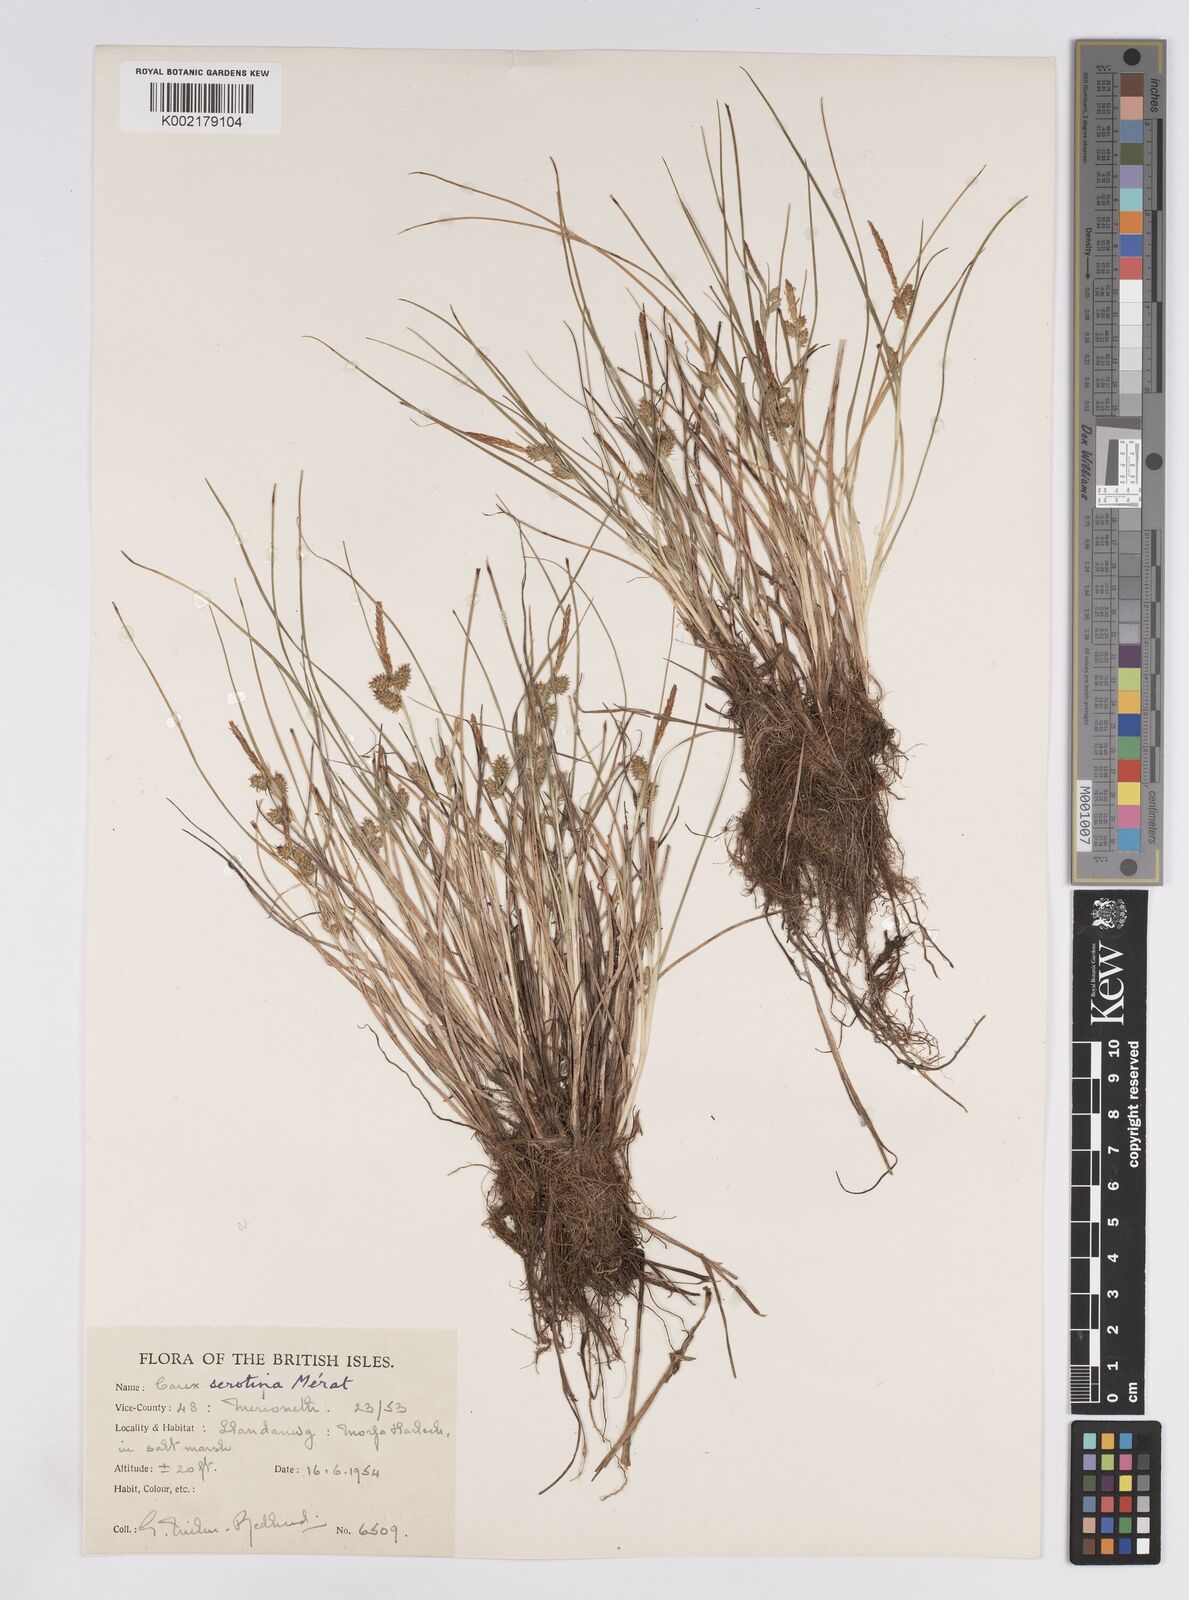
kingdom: Plantae
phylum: Tracheophyta
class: Liliopsida
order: Poales
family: Cyperaceae
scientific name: Cyperaceae
